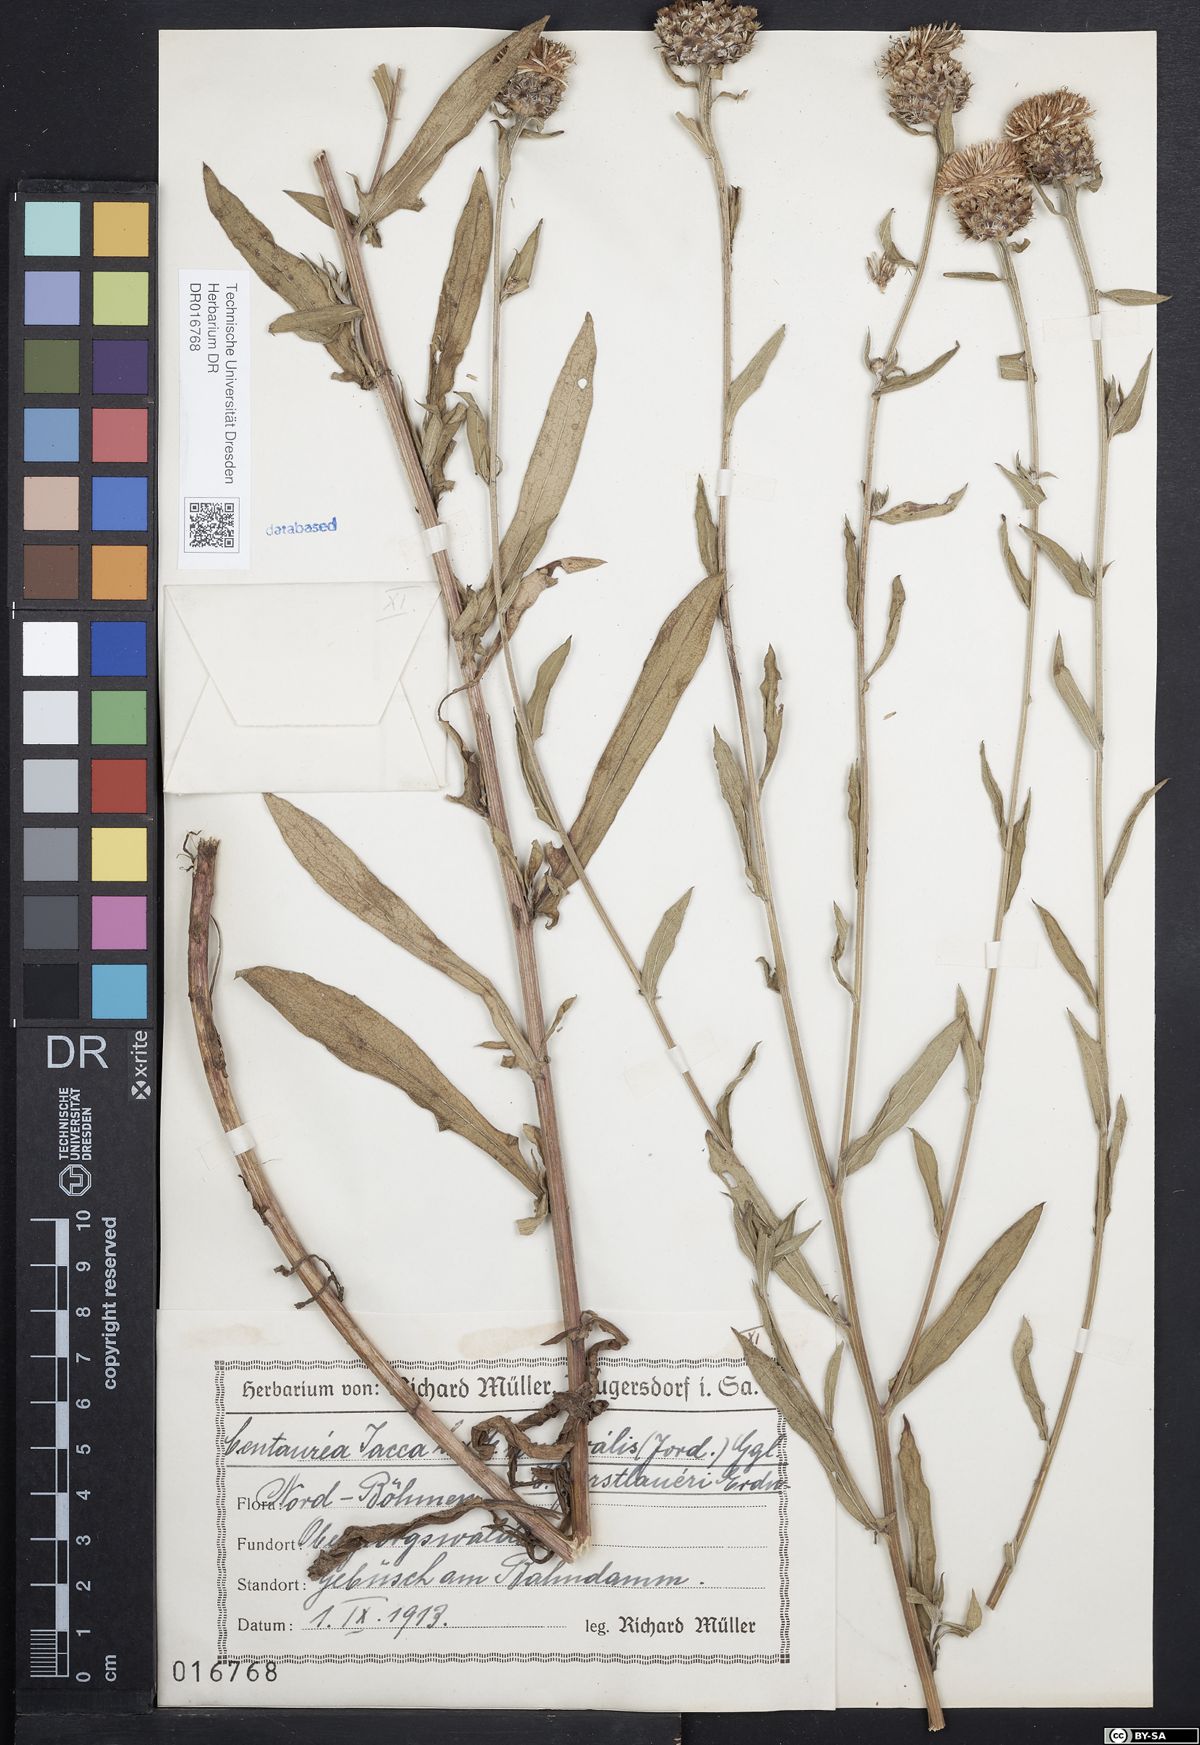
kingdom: Plantae
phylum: Tracheophyta
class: Magnoliopsida
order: Asterales
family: Asteraceae
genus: Centaurea
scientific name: Centaurea jacea
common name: Brown knapweed
